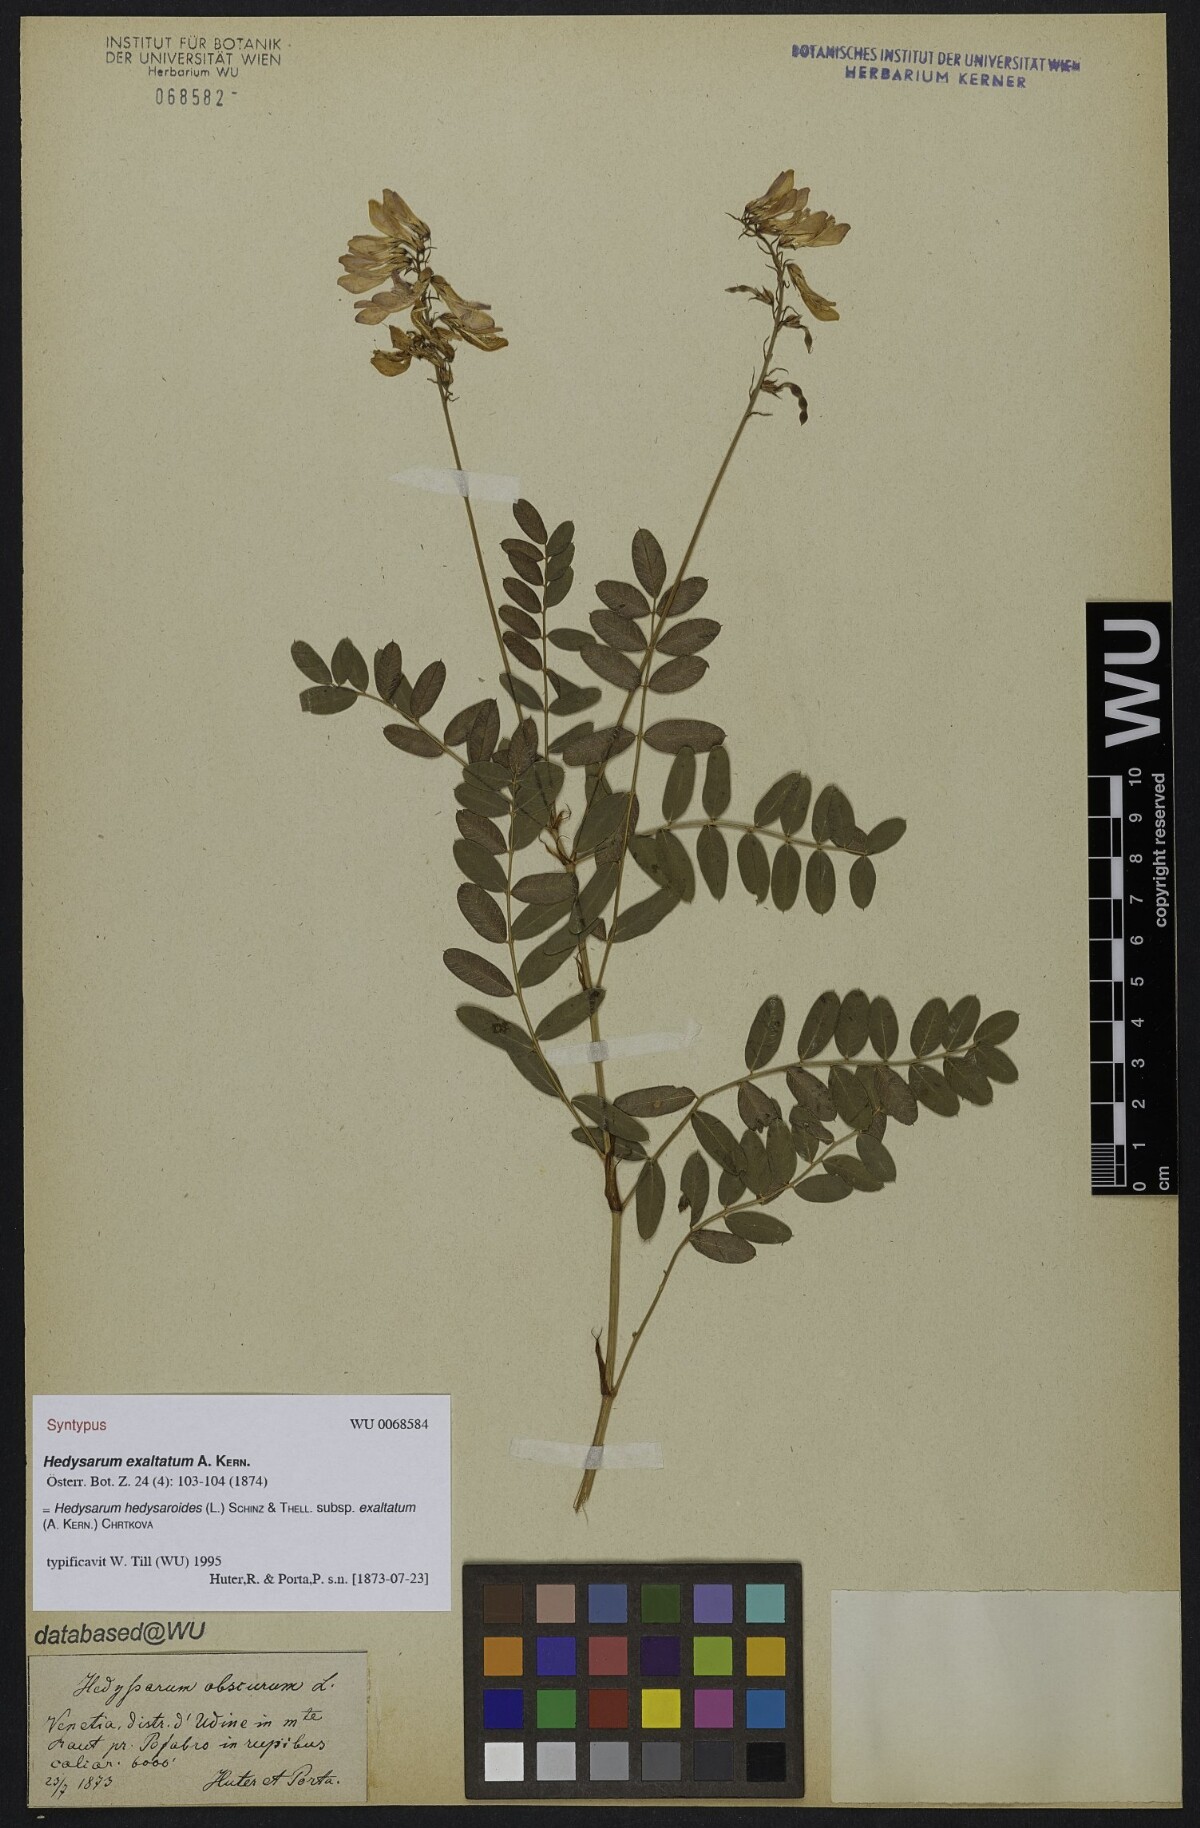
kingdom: Plantae
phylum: Tracheophyta
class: Magnoliopsida
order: Fabales
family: Fabaceae
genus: Hedysarum
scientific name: Hedysarum hedysaroides
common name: Alpine french-honeysuckle
